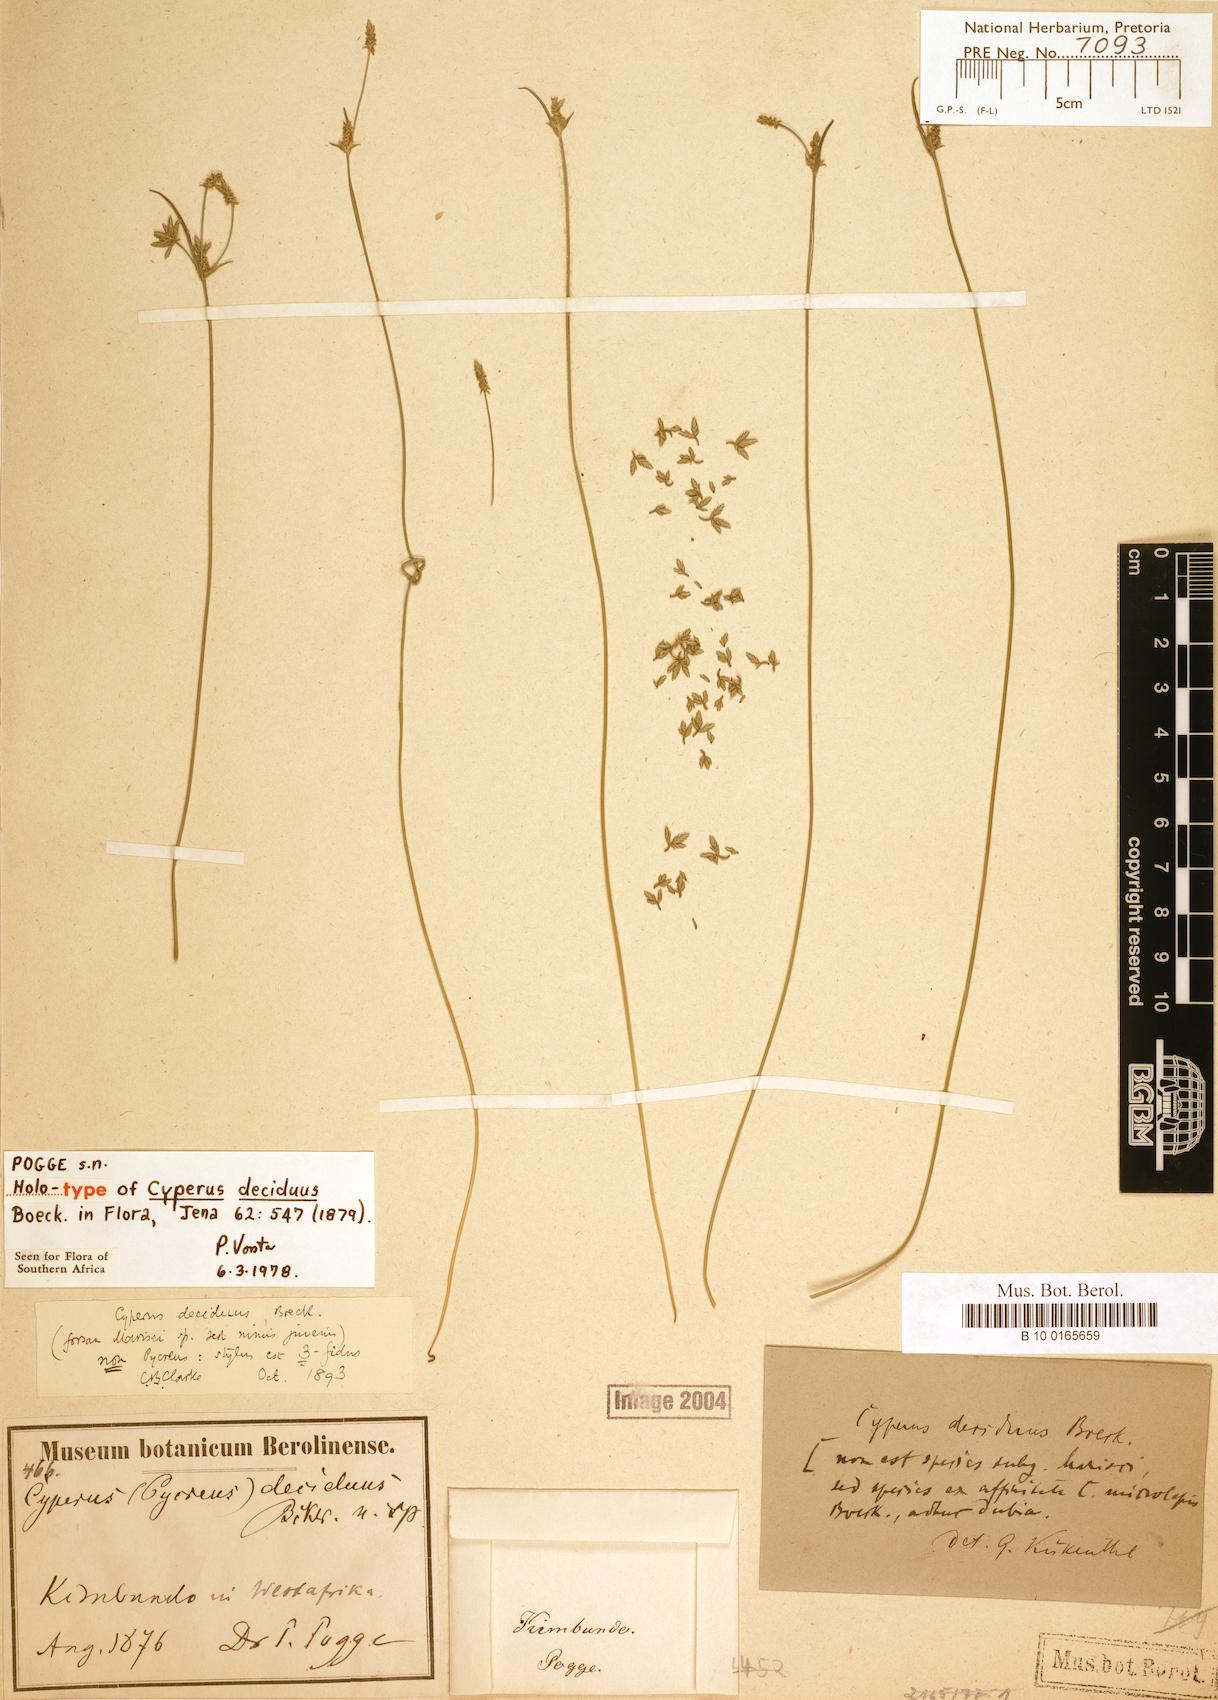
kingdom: Plantae
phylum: Tracheophyta
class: Liliopsida
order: Poales
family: Cyperaceae
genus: Cyperus
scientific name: Cyperus deciduus
